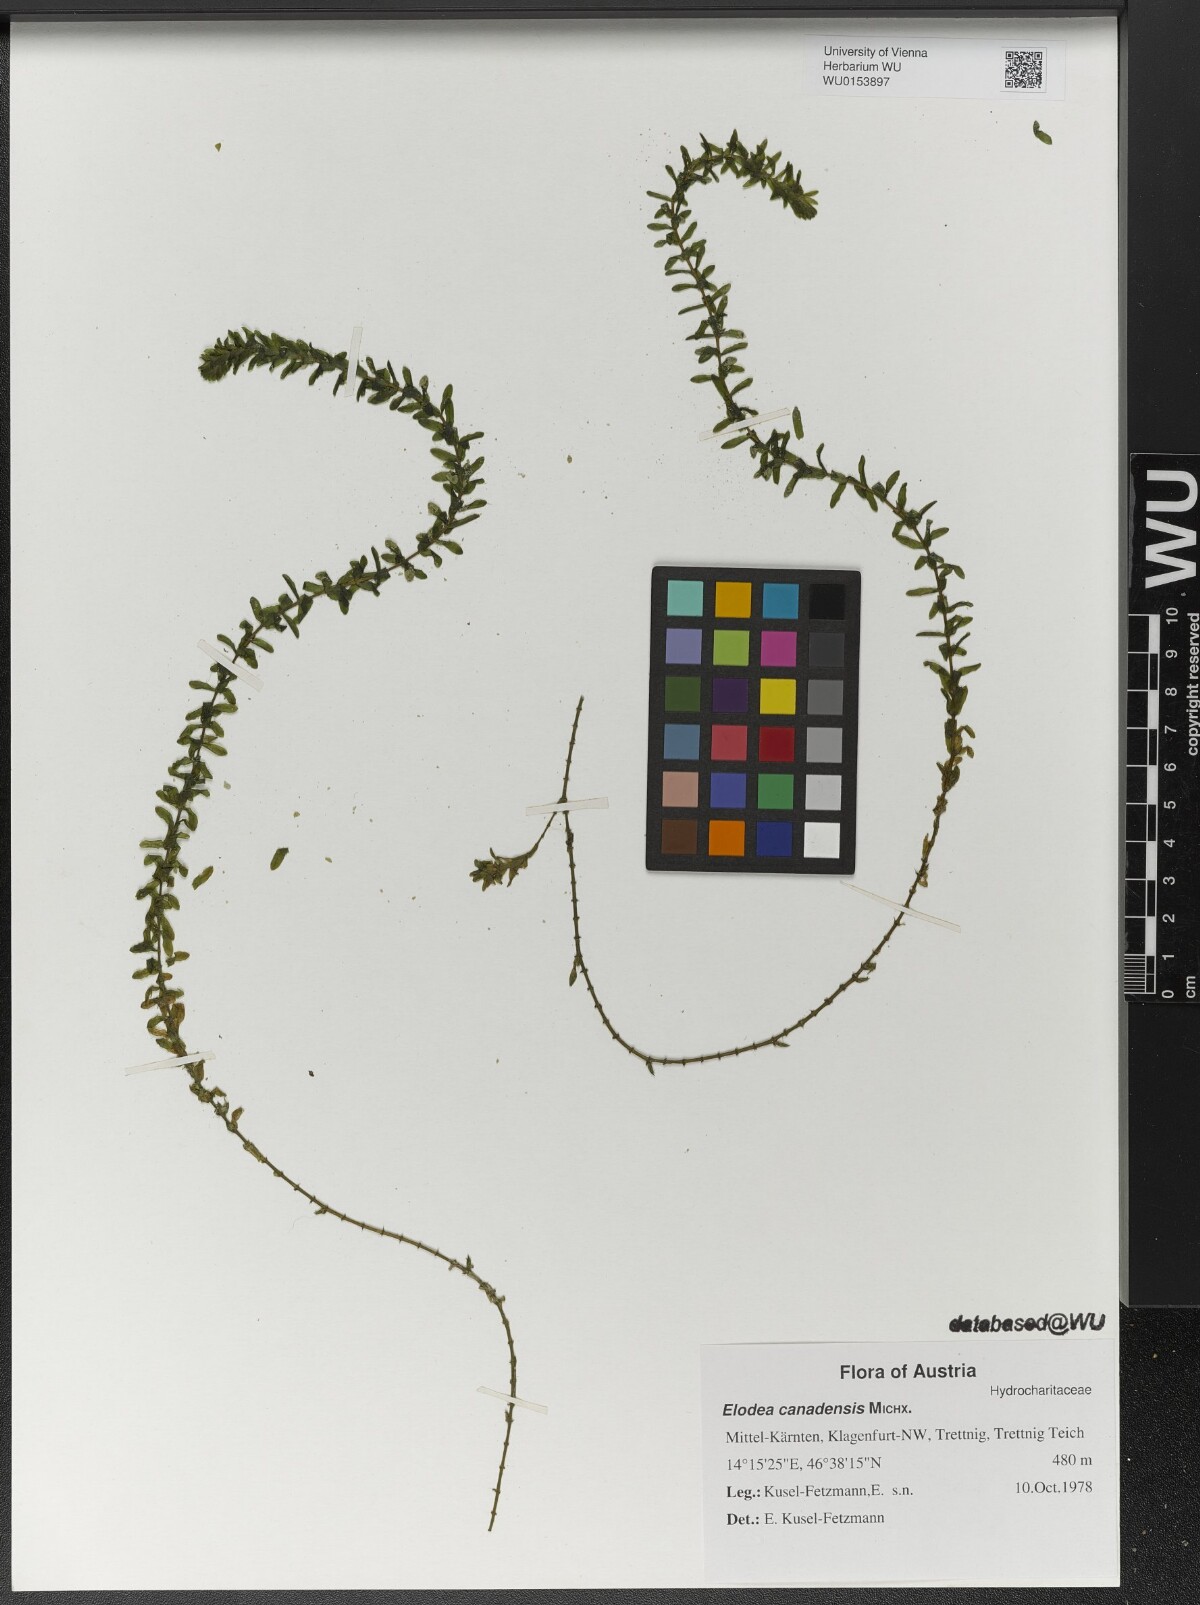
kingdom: Plantae
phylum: Tracheophyta
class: Liliopsida
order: Alismatales
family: Hydrocharitaceae
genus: Elodea
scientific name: Elodea canadensis
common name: Canadian waterweed
